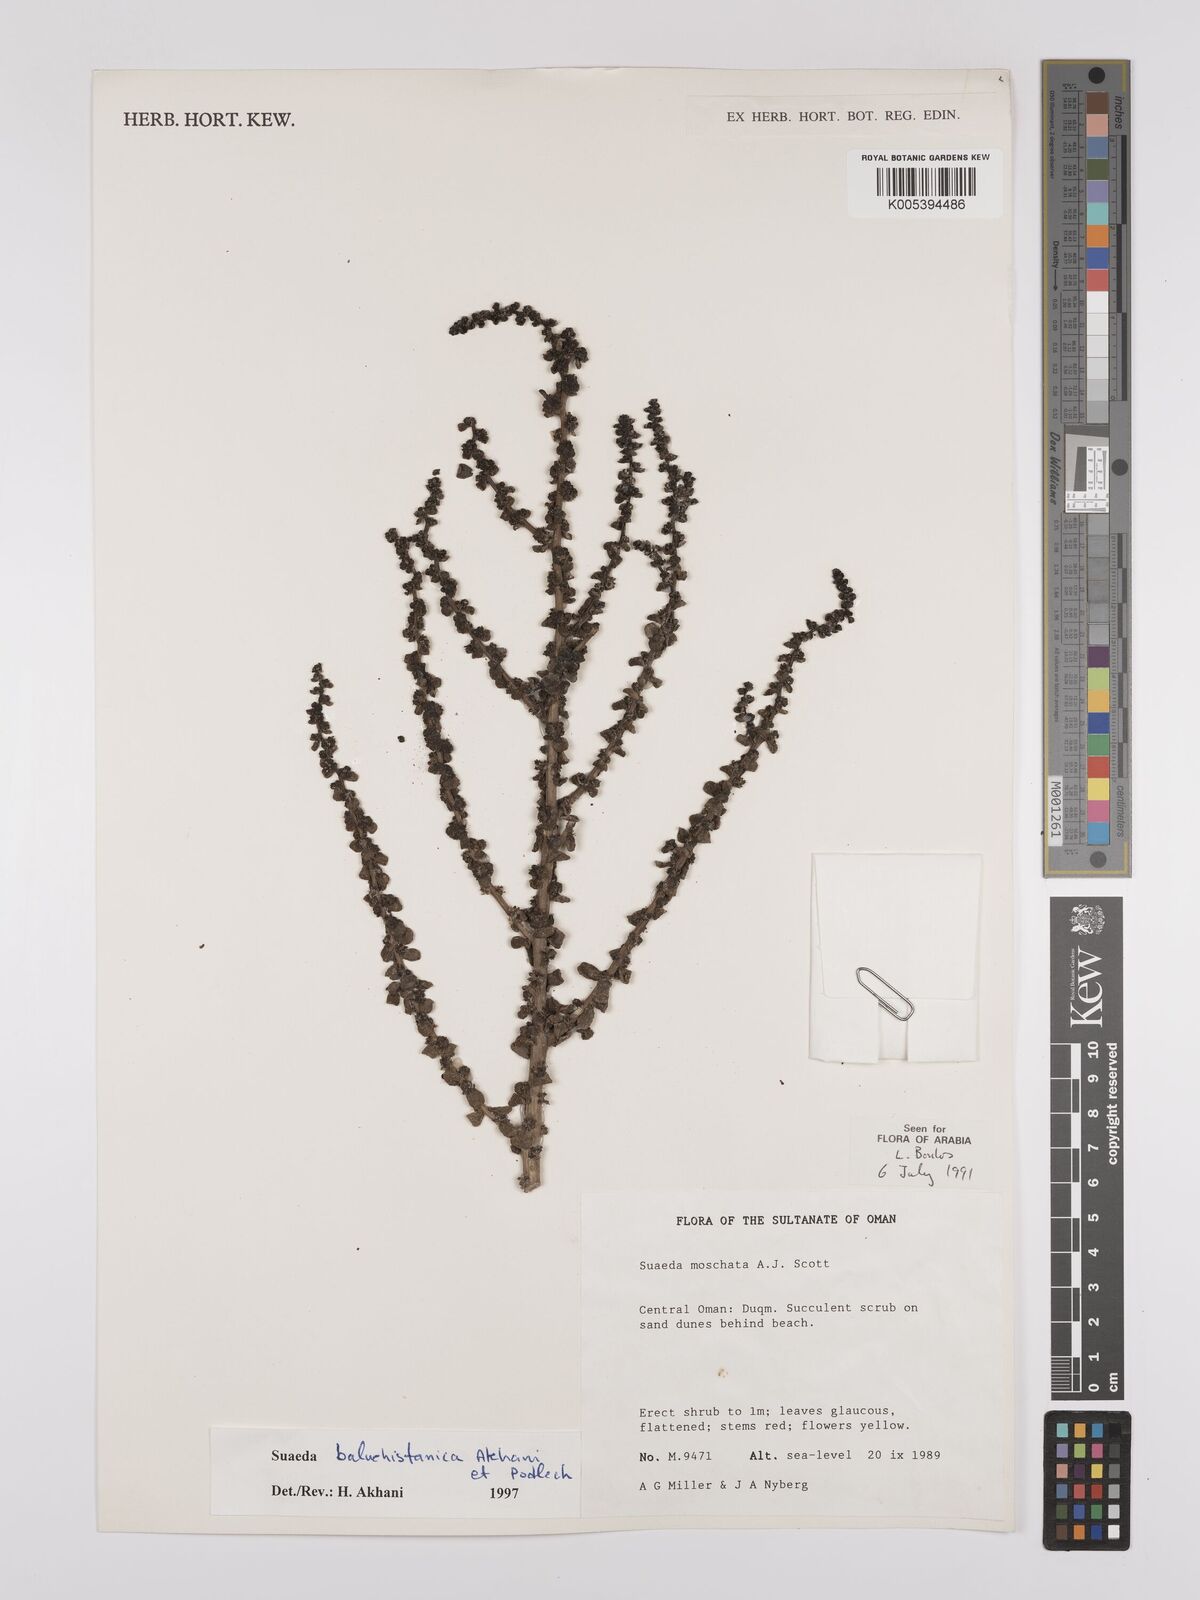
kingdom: Plantae
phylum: Tracheophyta
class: Magnoliopsida
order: Caryophyllales
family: Amaranthaceae
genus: Suaeda
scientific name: Suaeda monoica
